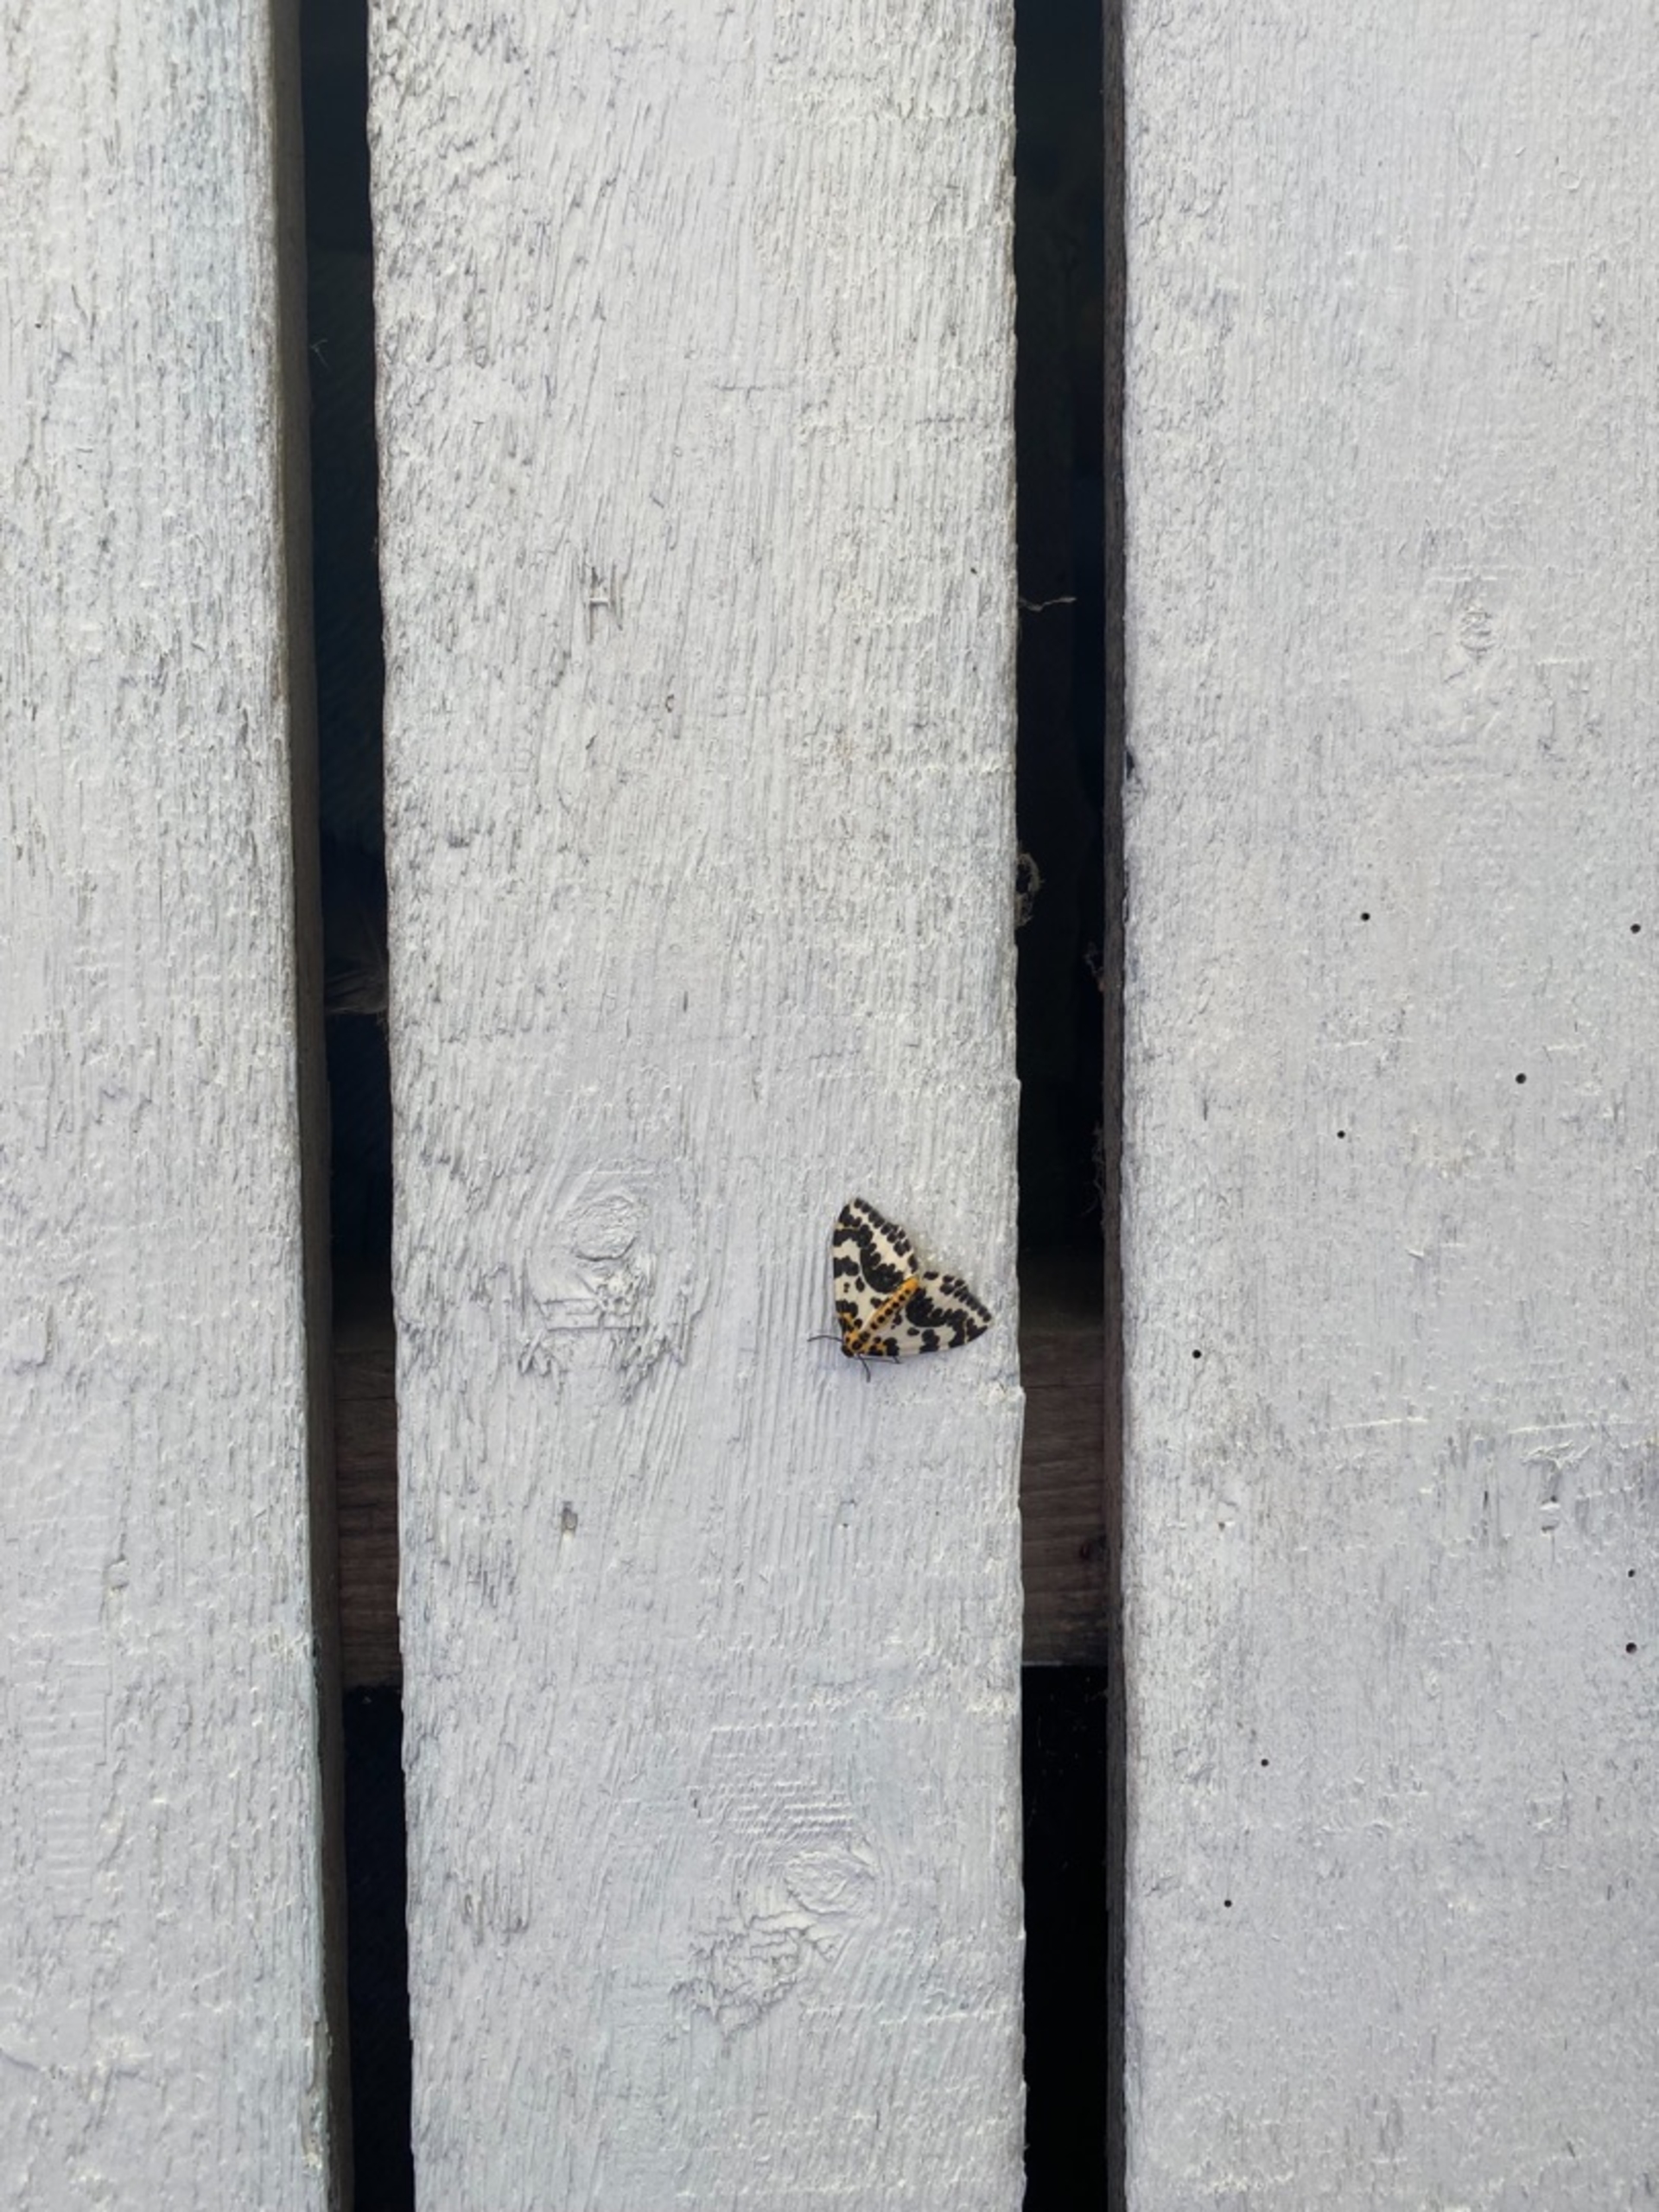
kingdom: Animalia
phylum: Arthropoda
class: Insecta
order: Lepidoptera
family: Geometridae
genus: Abraxas
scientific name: Abraxas grossulariata
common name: Harlekin
